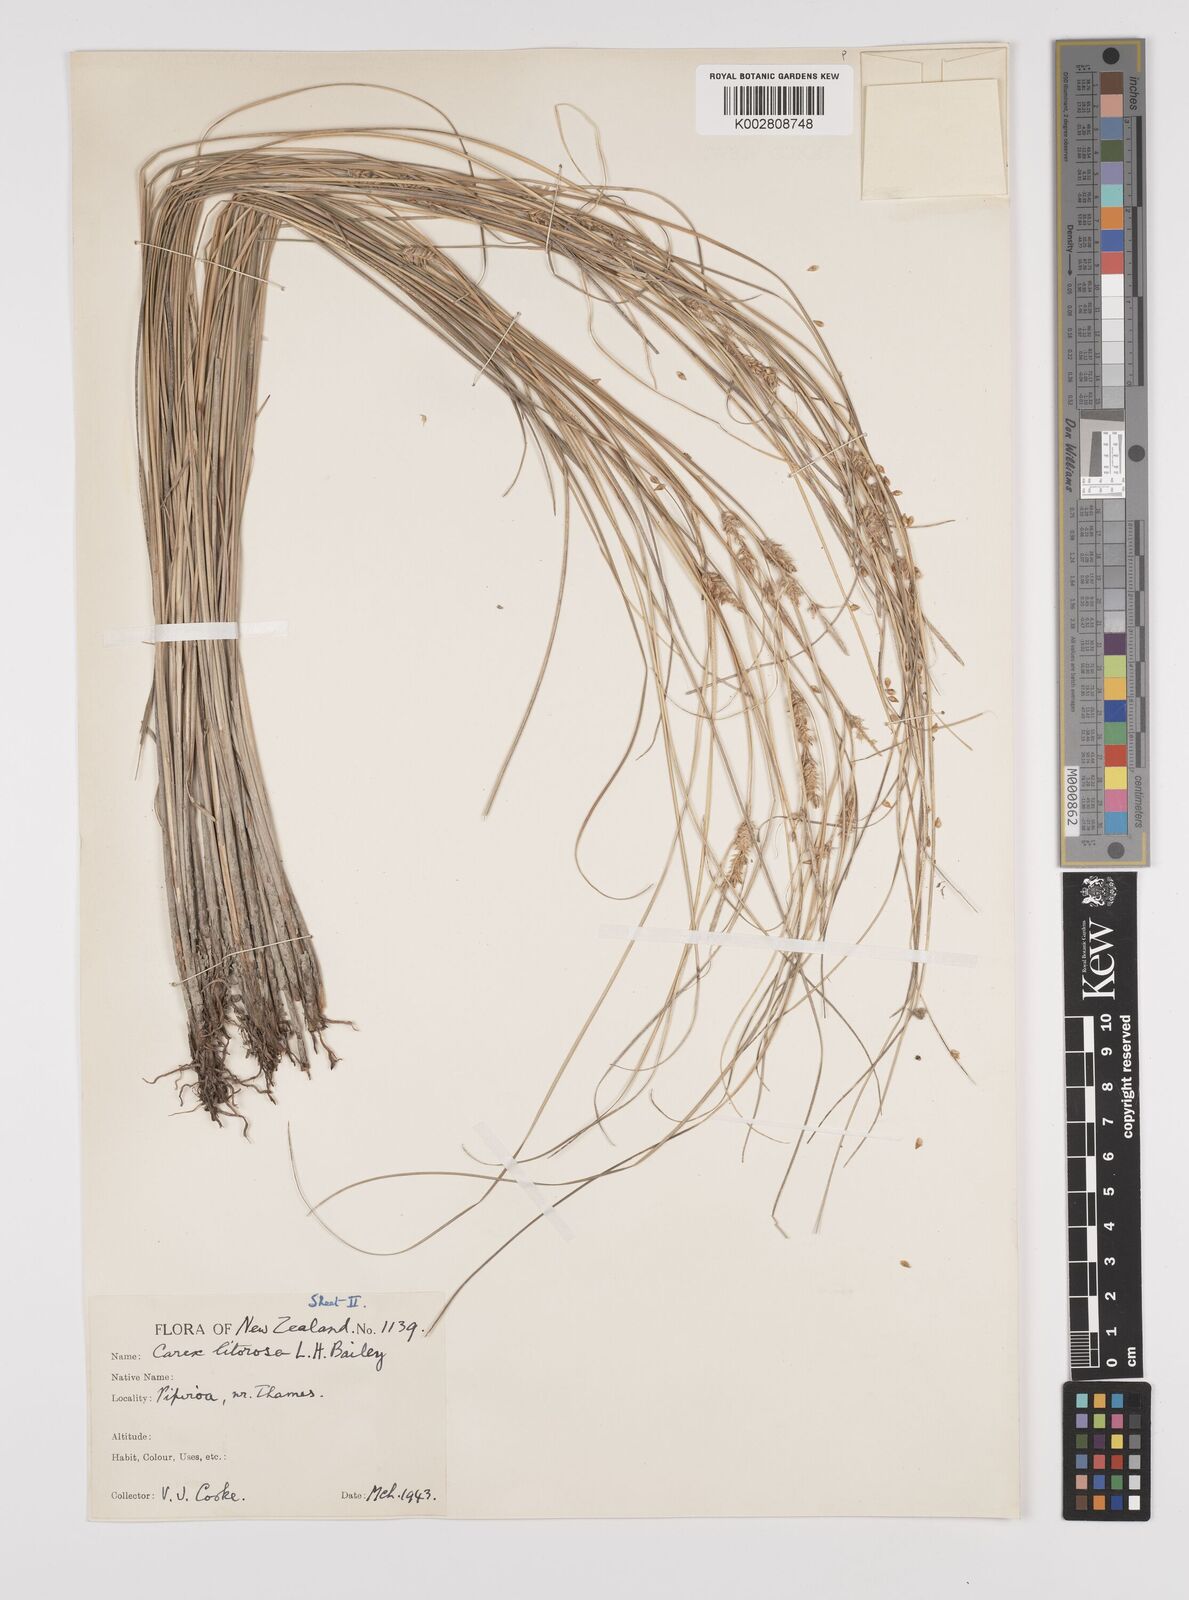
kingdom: Plantae
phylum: Tracheophyta
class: Liliopsida
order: Poales
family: Cyperaceae
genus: Carex
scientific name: Carex litorosa
